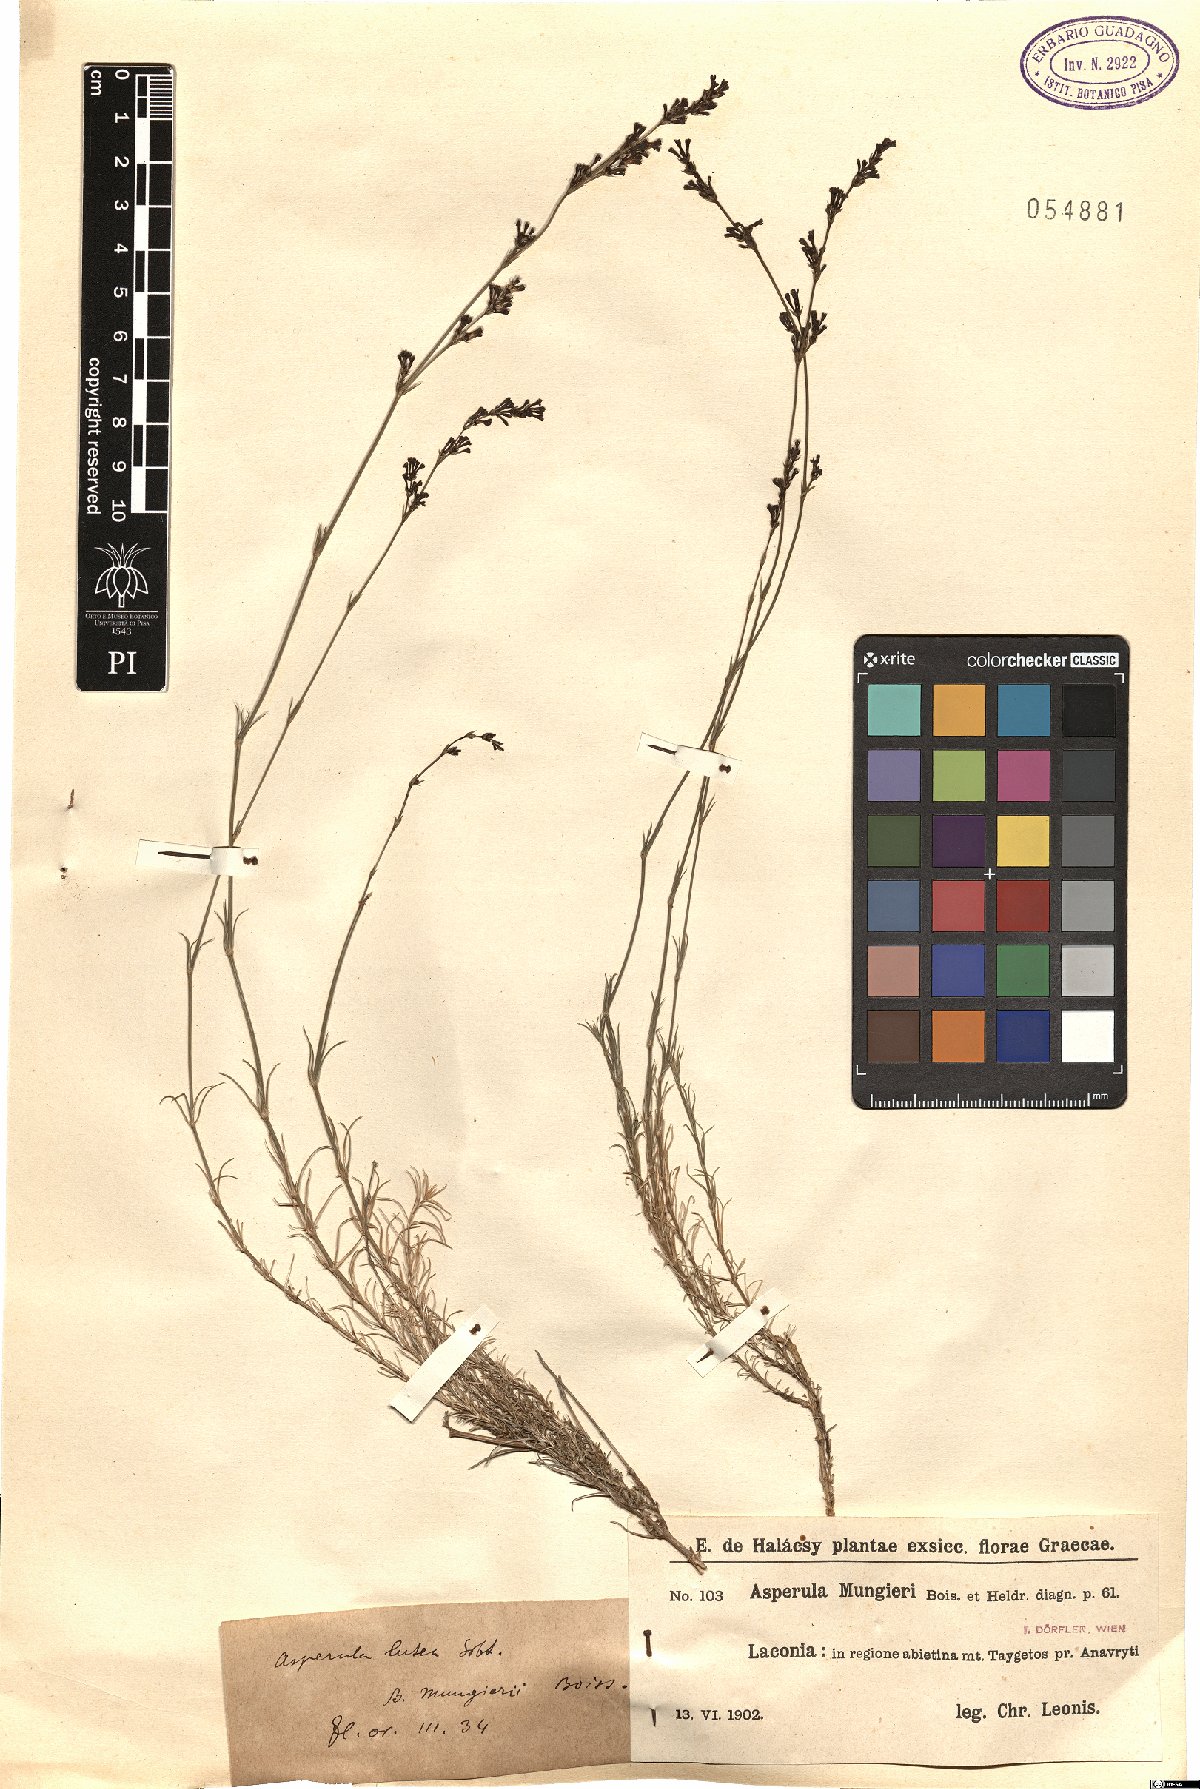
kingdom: Plantae
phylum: Tracheophyta
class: Magnoliopsida
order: Gentianales
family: Rubiaceae
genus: Cynanchica
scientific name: Cynanchica mungieri
